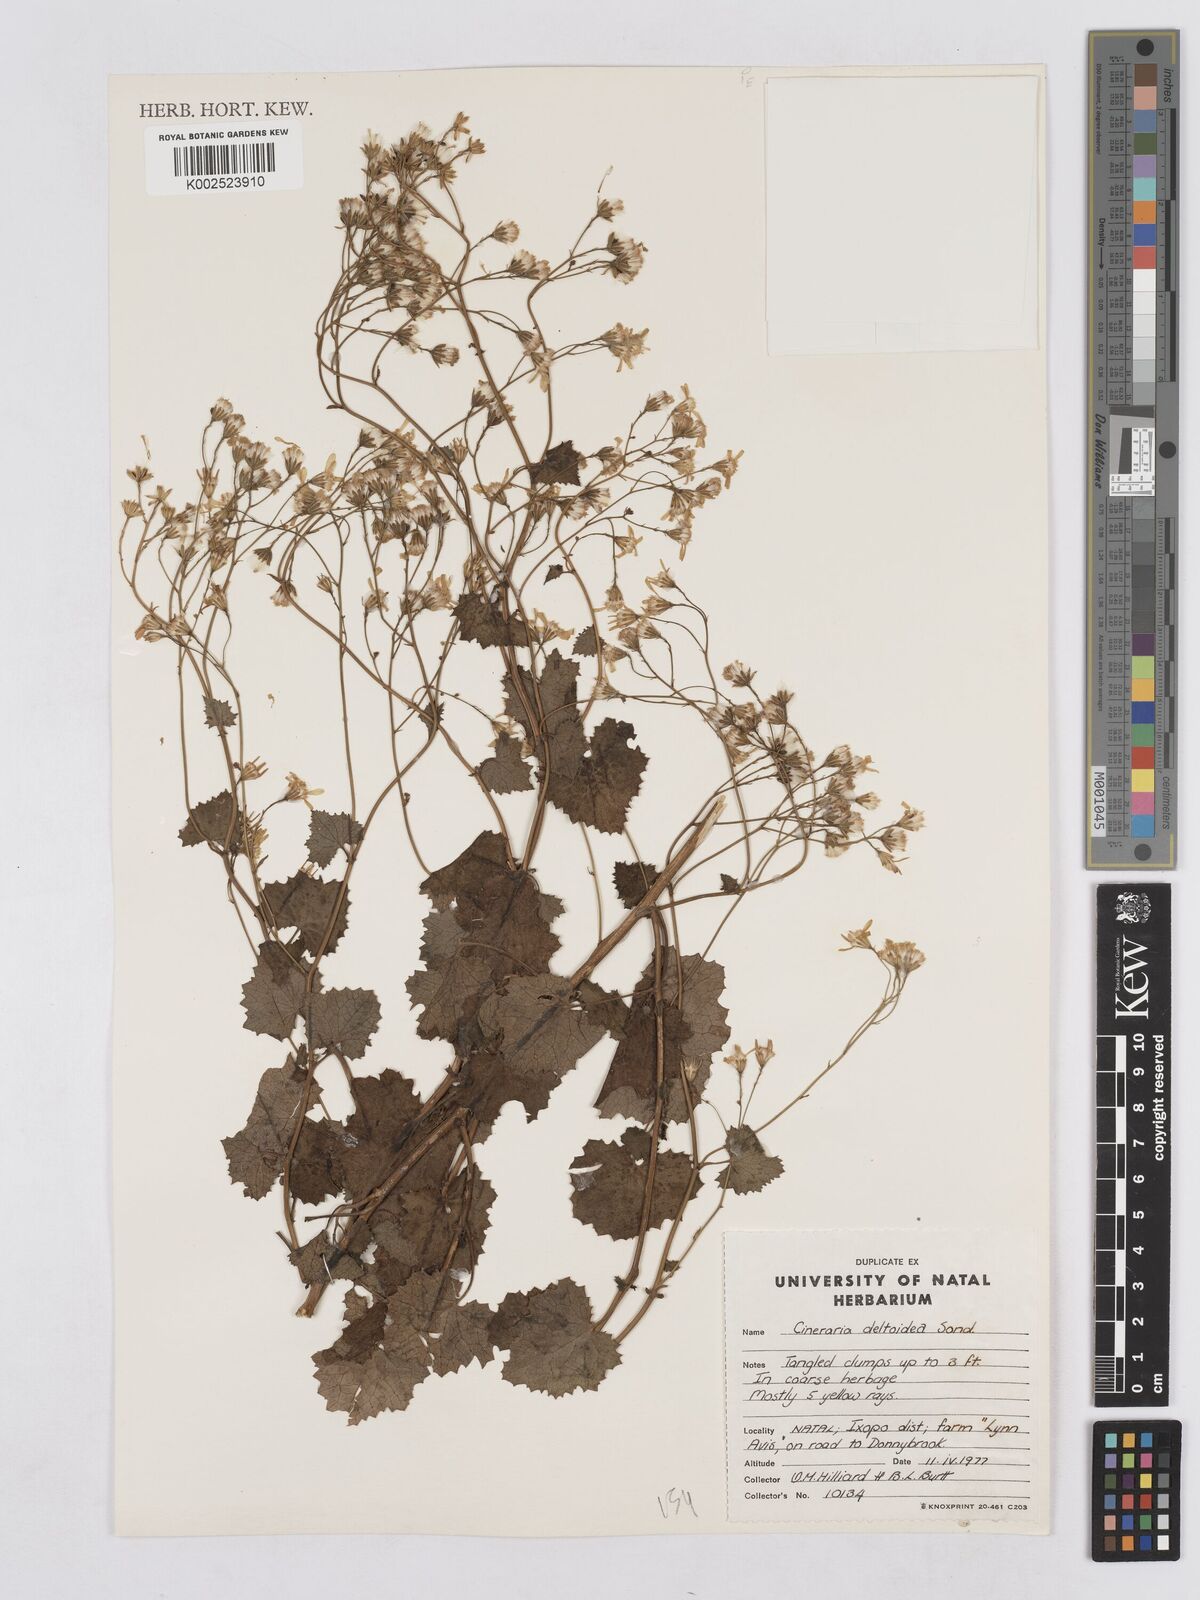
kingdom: Plantae
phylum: Tracheophyta
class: Magnoliopsida
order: Asterales
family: Asteraceae
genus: Senecio
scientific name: Senecio deltoideus
